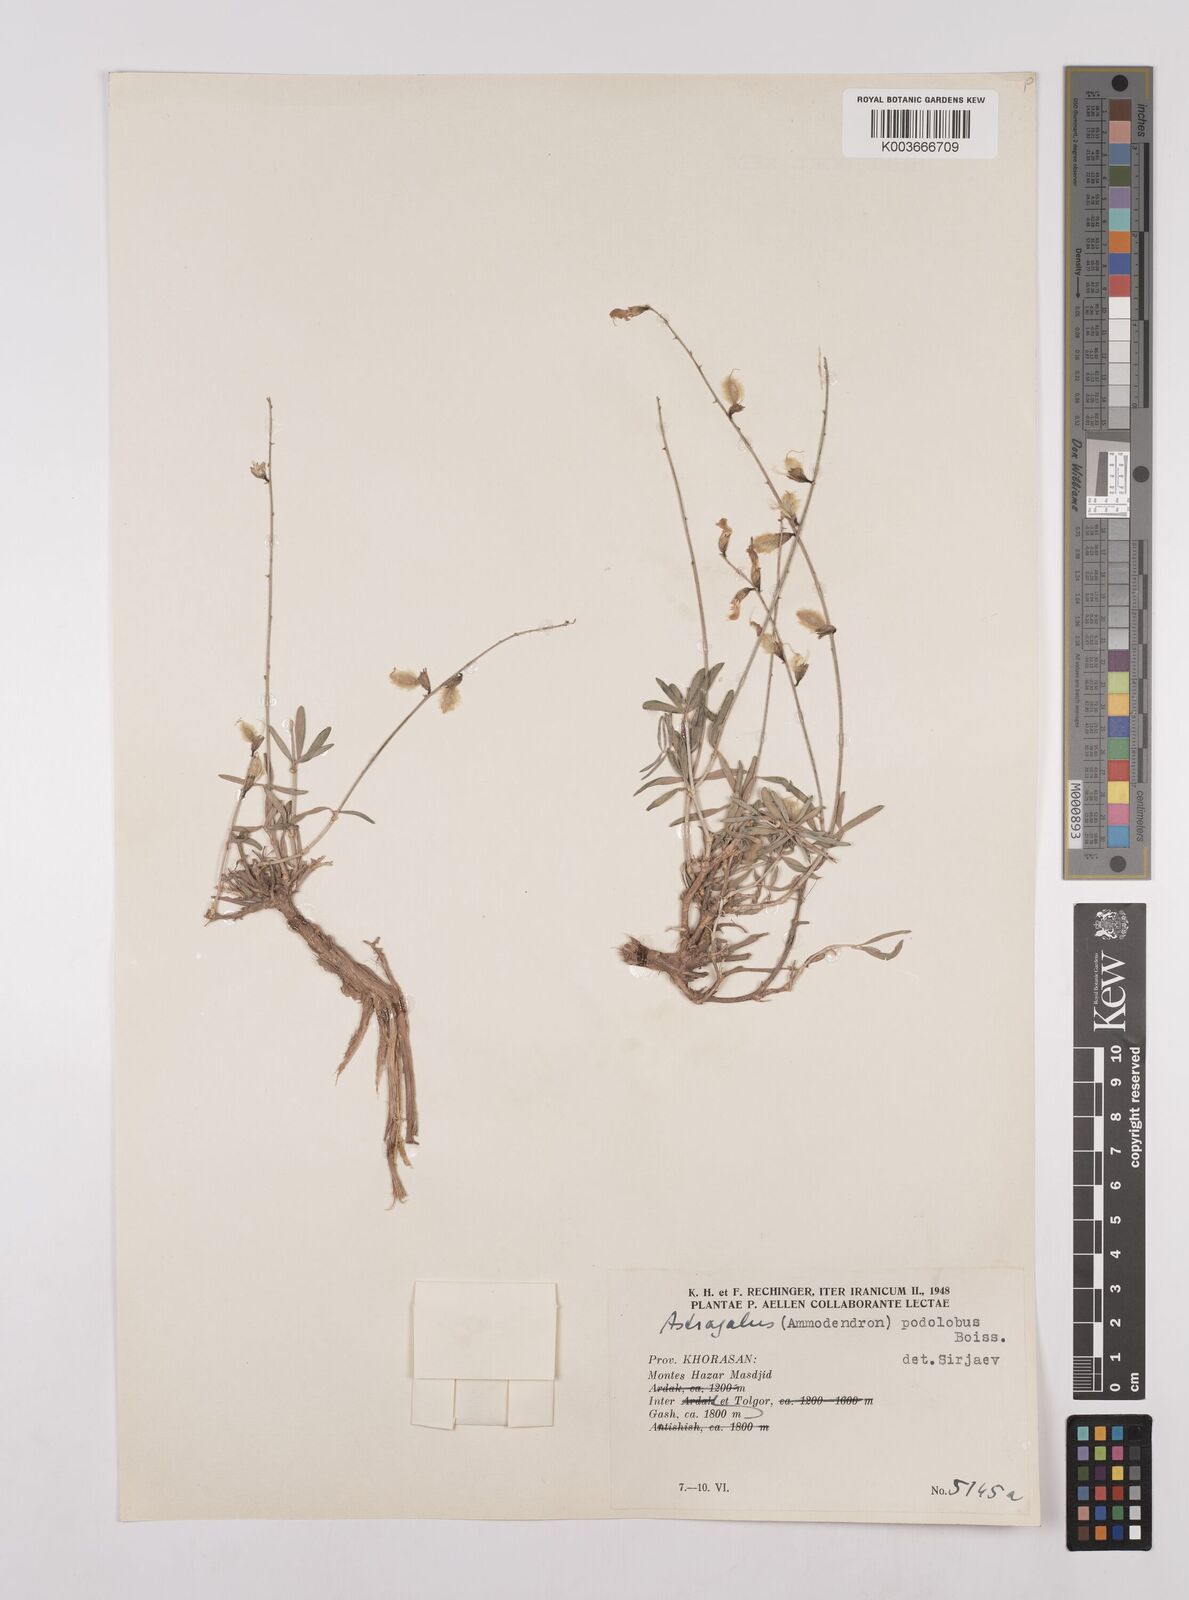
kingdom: Plantae
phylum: Tracheophyta
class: Magnoliopsida
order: Fabales
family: Fabaceae
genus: Astragalus
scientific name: Astragalus podolobus
